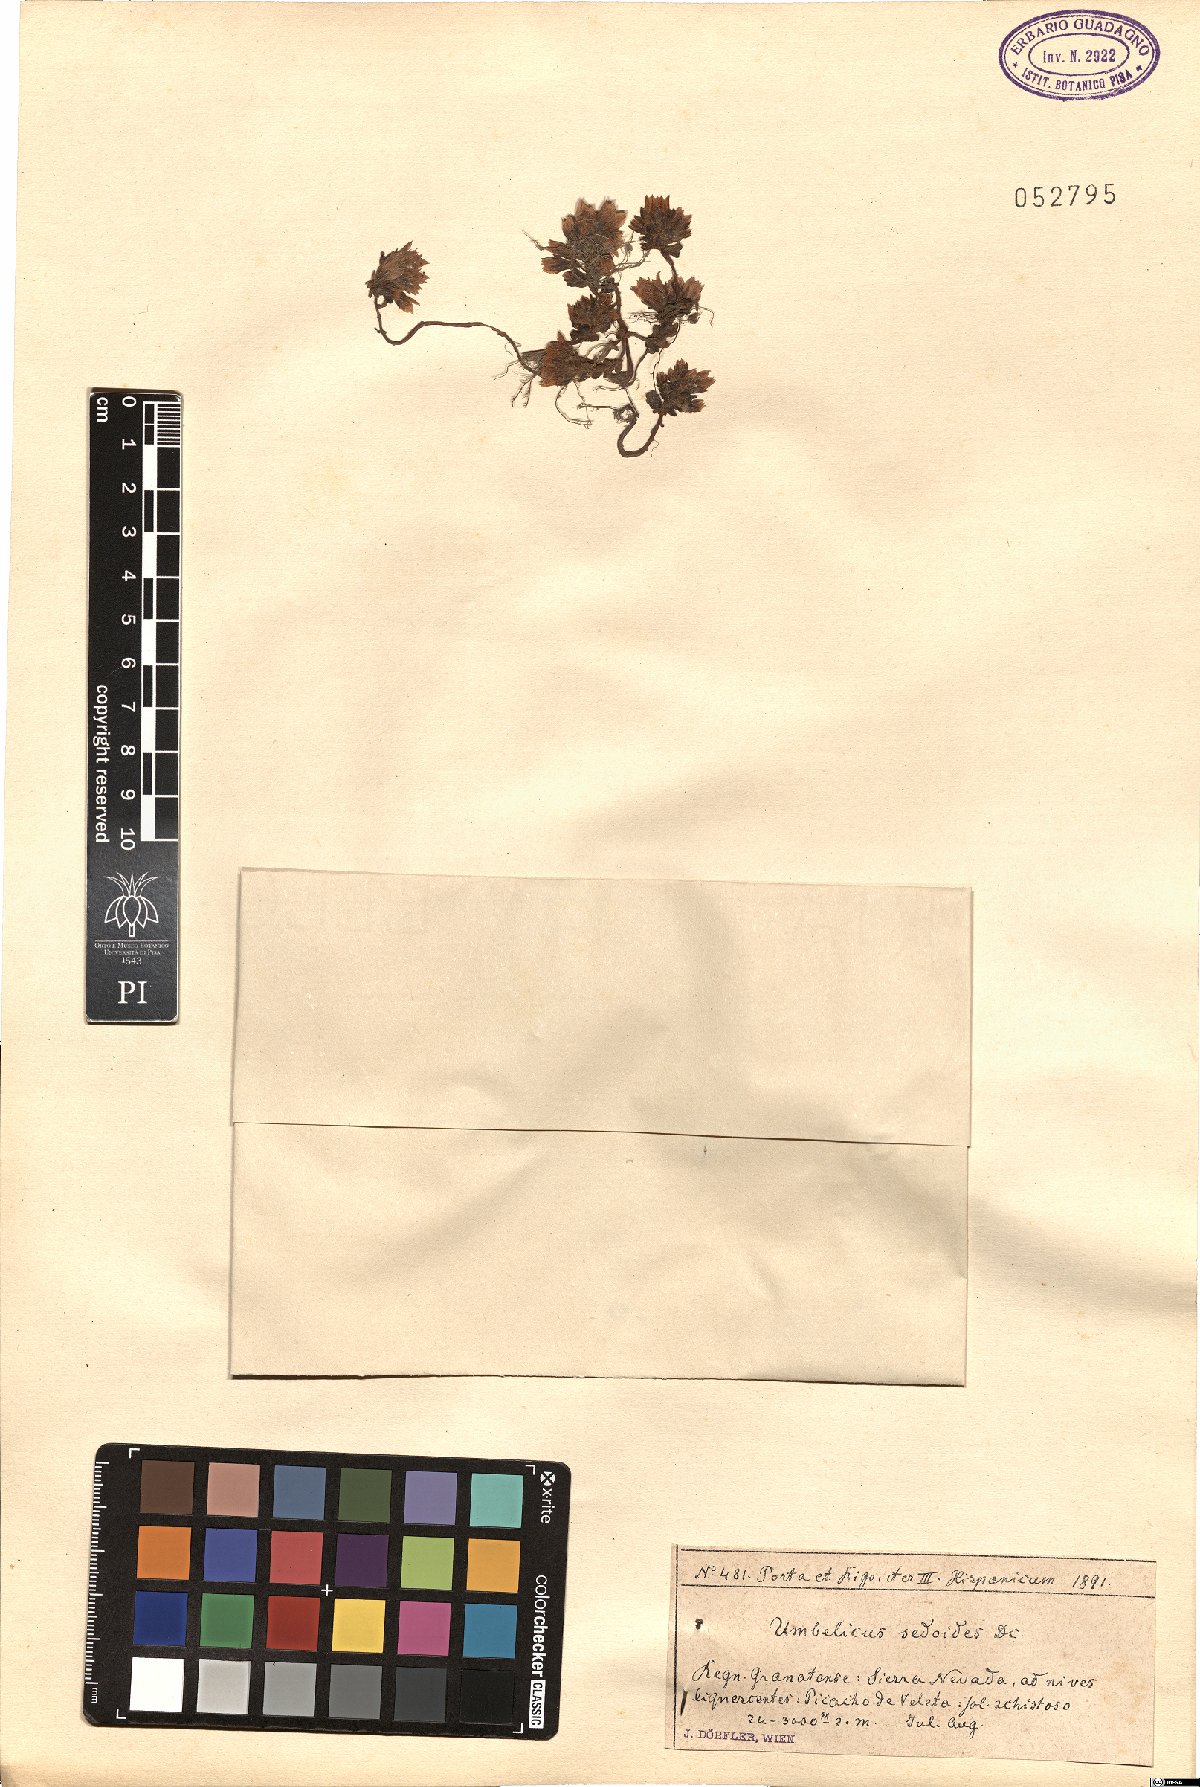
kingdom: Plantae
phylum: Tracheophyta
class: Magnoliopsida
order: Saxifragales
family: Crassulaceae
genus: Sedum
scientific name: Sedum candollei
